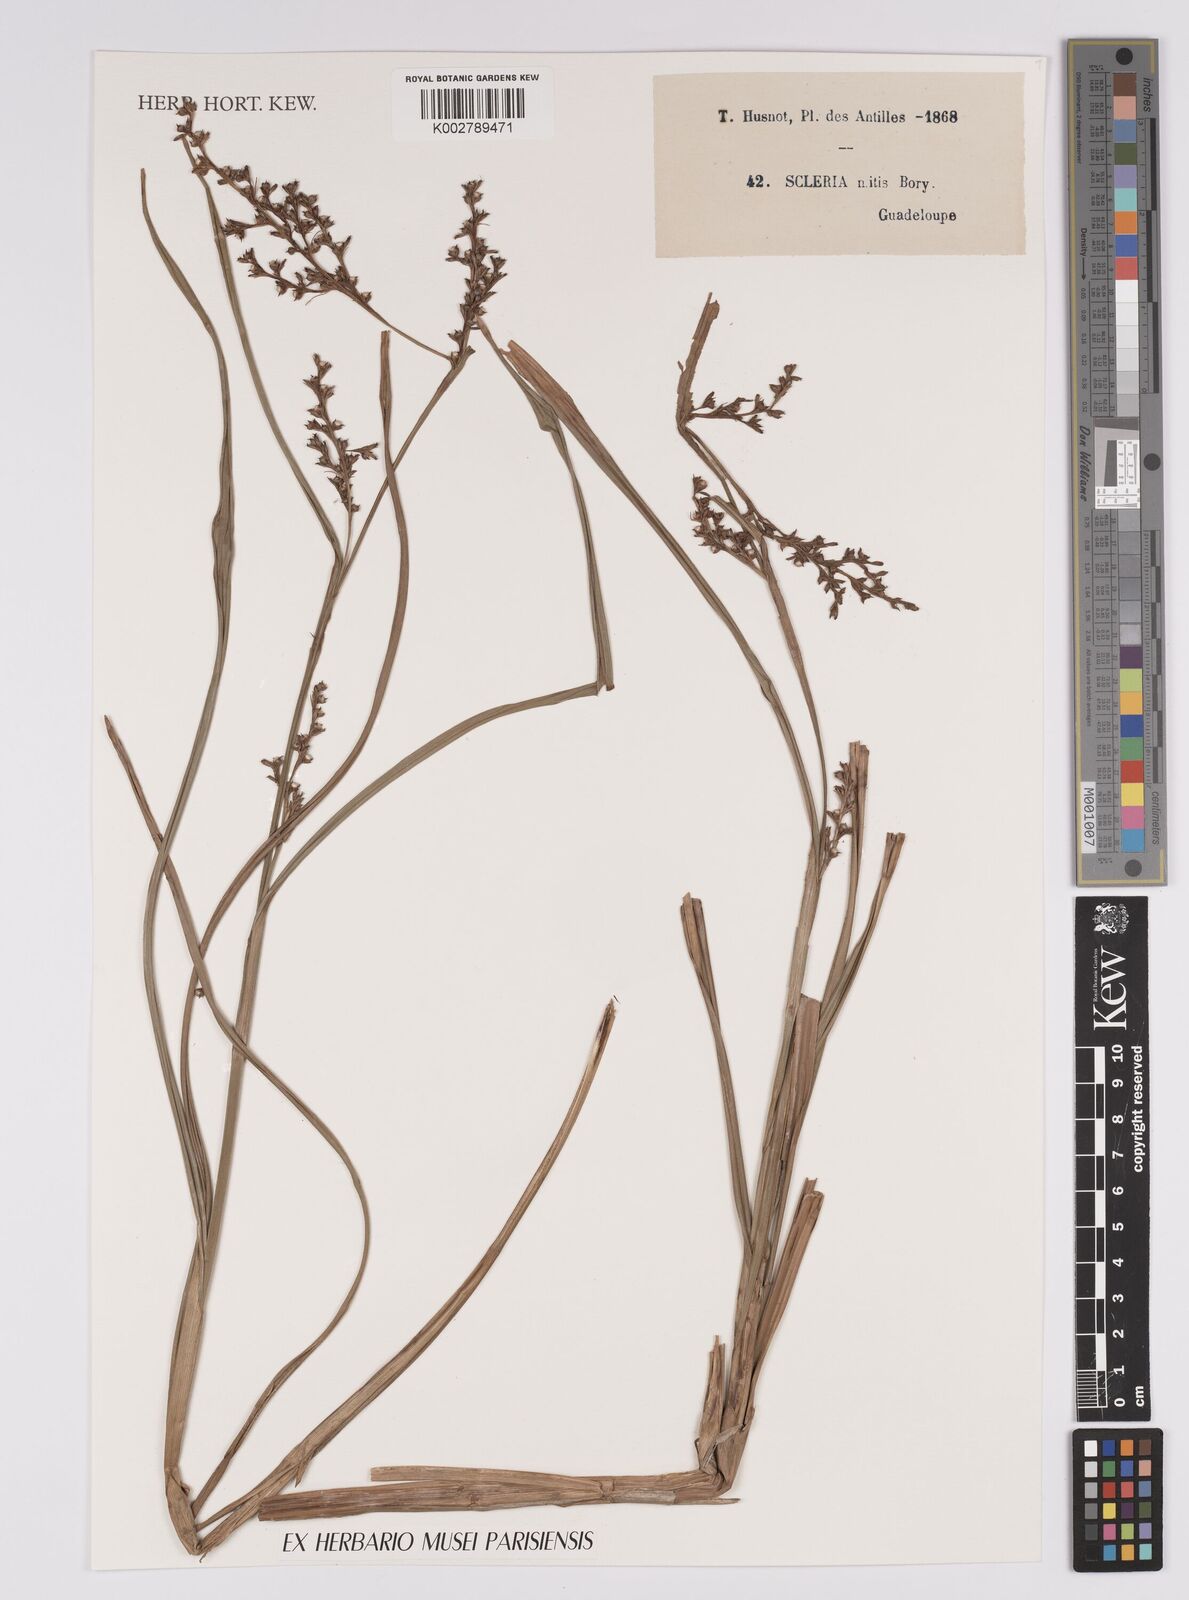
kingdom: Plantae
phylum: Tracheophyta
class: Liliopsida
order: Poales
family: Cyperaceae
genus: Scleria
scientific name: Scleria mitis
